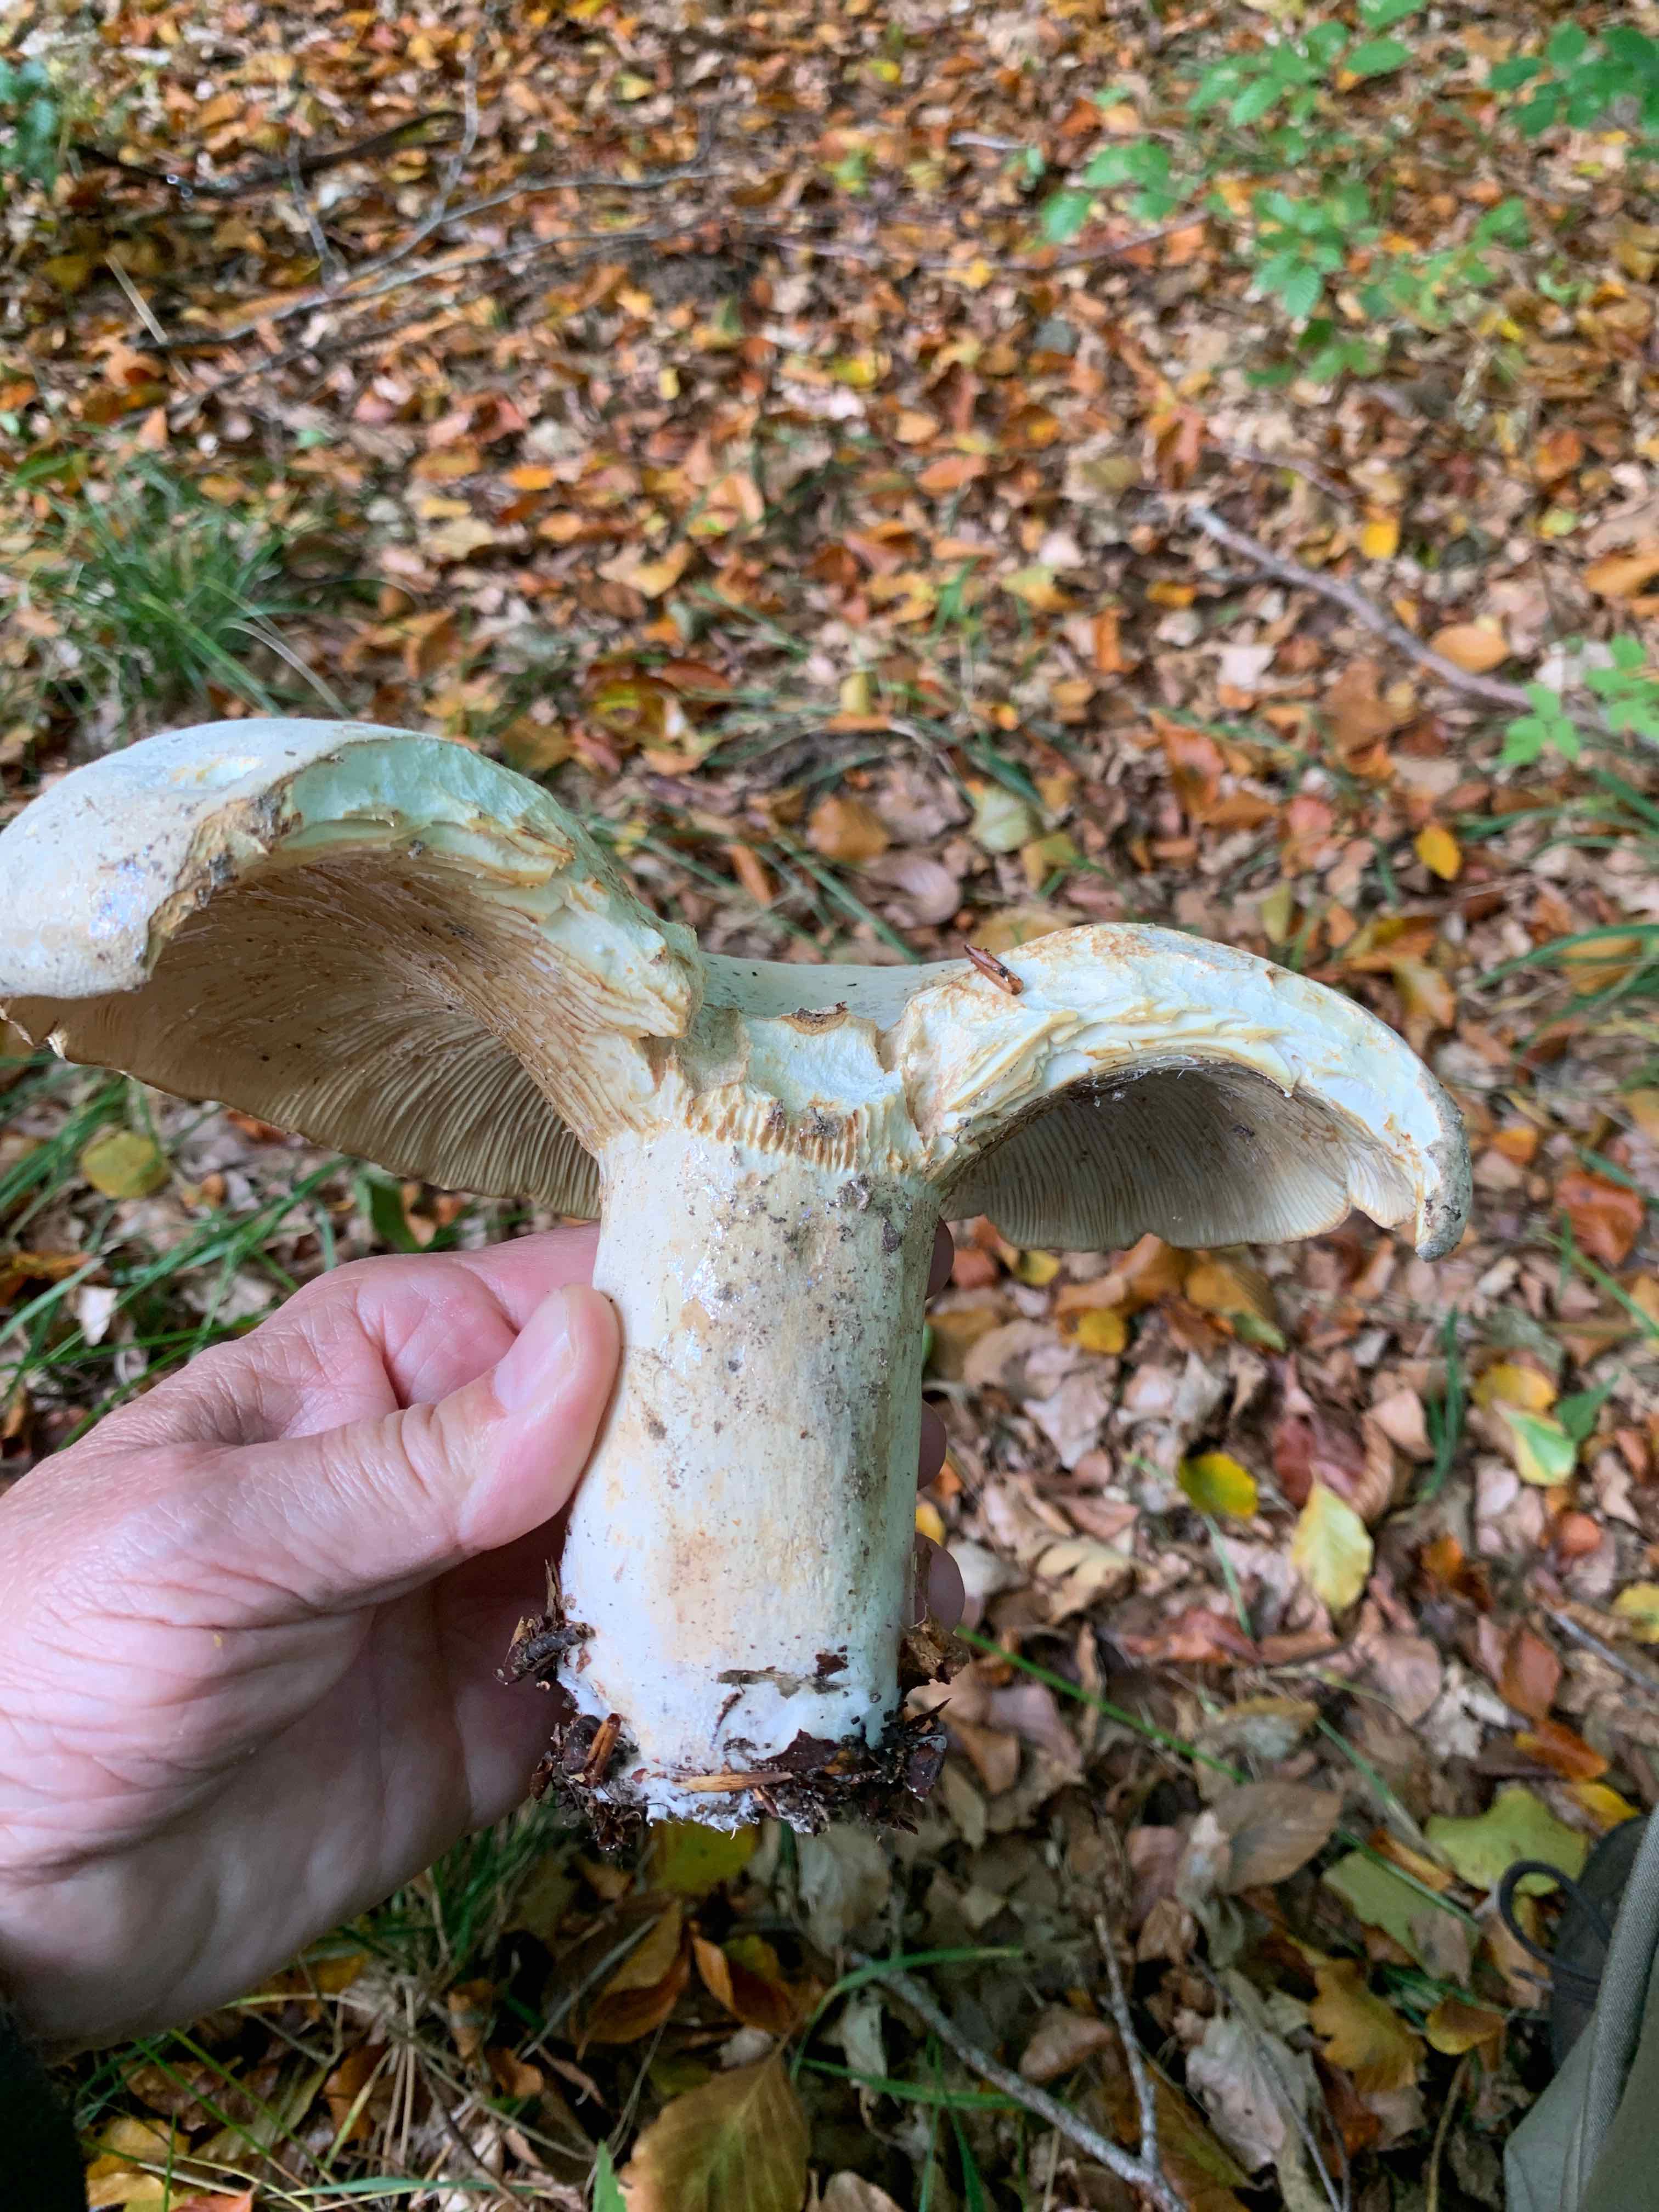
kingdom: Fungi
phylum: Basidiomycota
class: Agaricomycetes
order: Russulales
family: Russulaceae
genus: Lactifluus
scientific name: Lactifluus
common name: mælkehat
